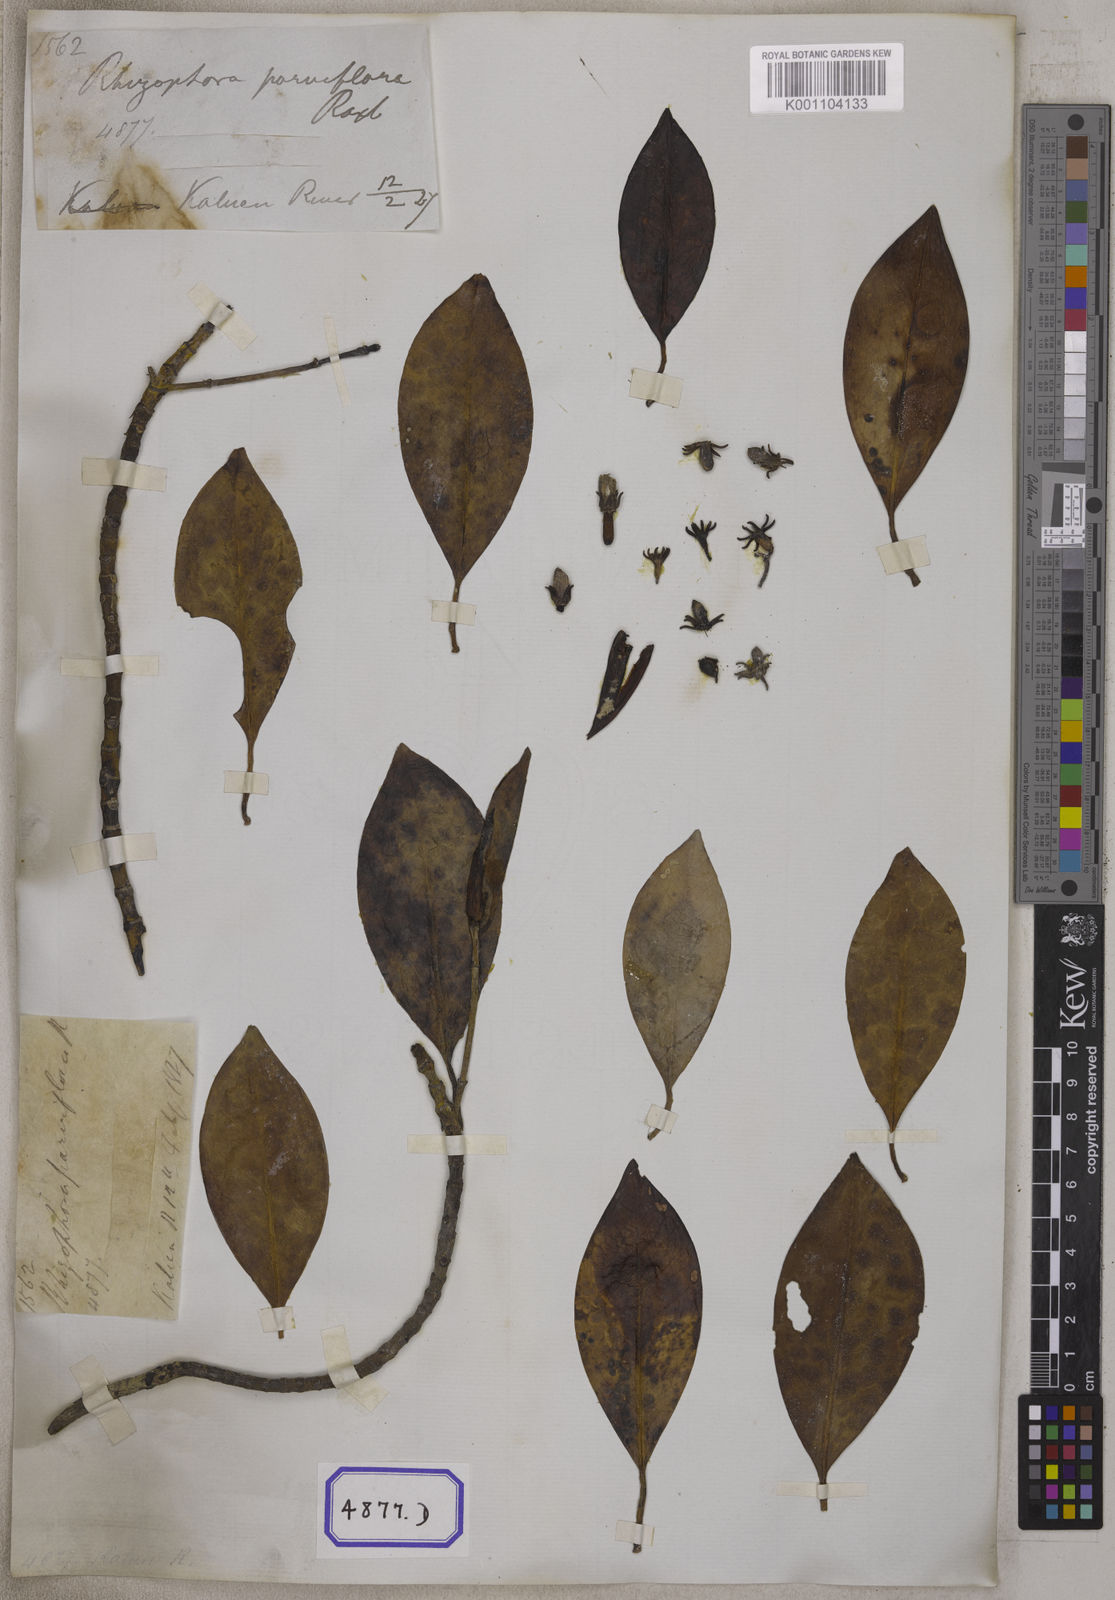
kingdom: Plantae
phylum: Tracheophyta
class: Magnoliopsida
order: Malpighiales
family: Rhizophoraceae
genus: Bruguiera
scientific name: Bruguiera parviflora
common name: Smallflower bruguiera
